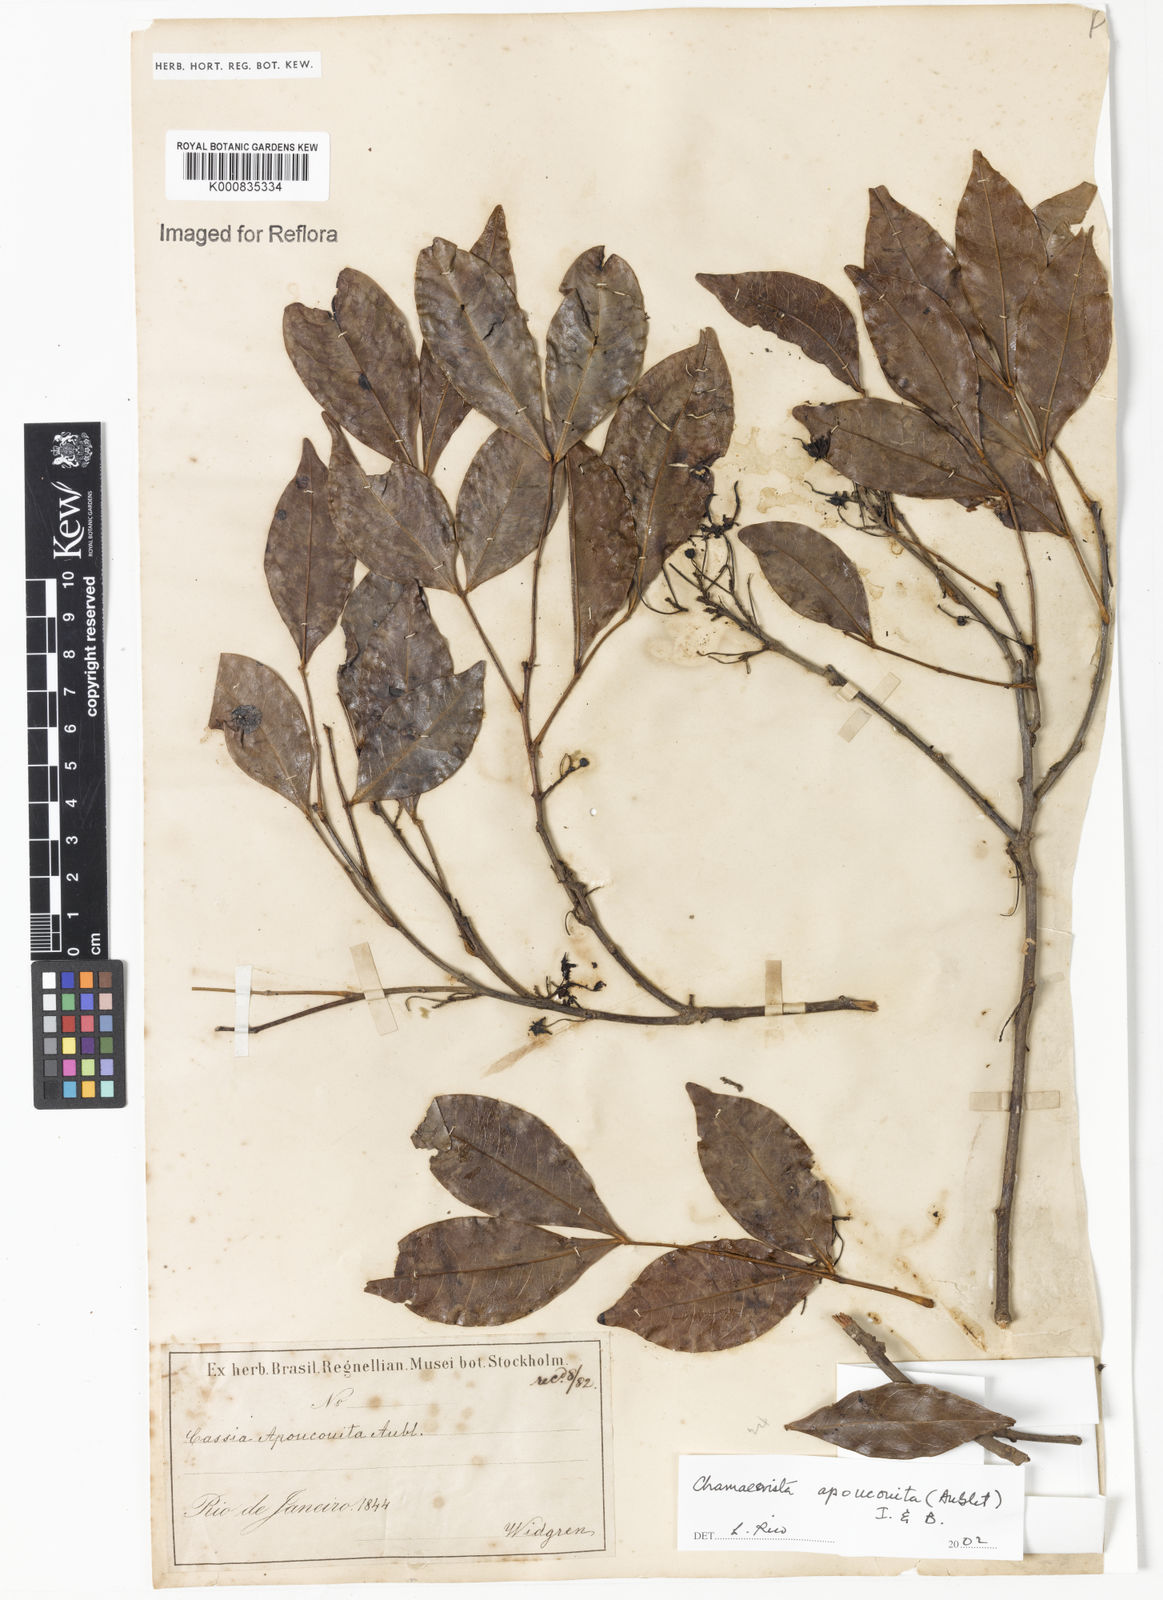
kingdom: Plantae
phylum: Tracheophyta
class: Magnoliopsida
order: Fabales
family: Fabaceae
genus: Chamaecrista
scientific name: Chamaecrista apoucouita
